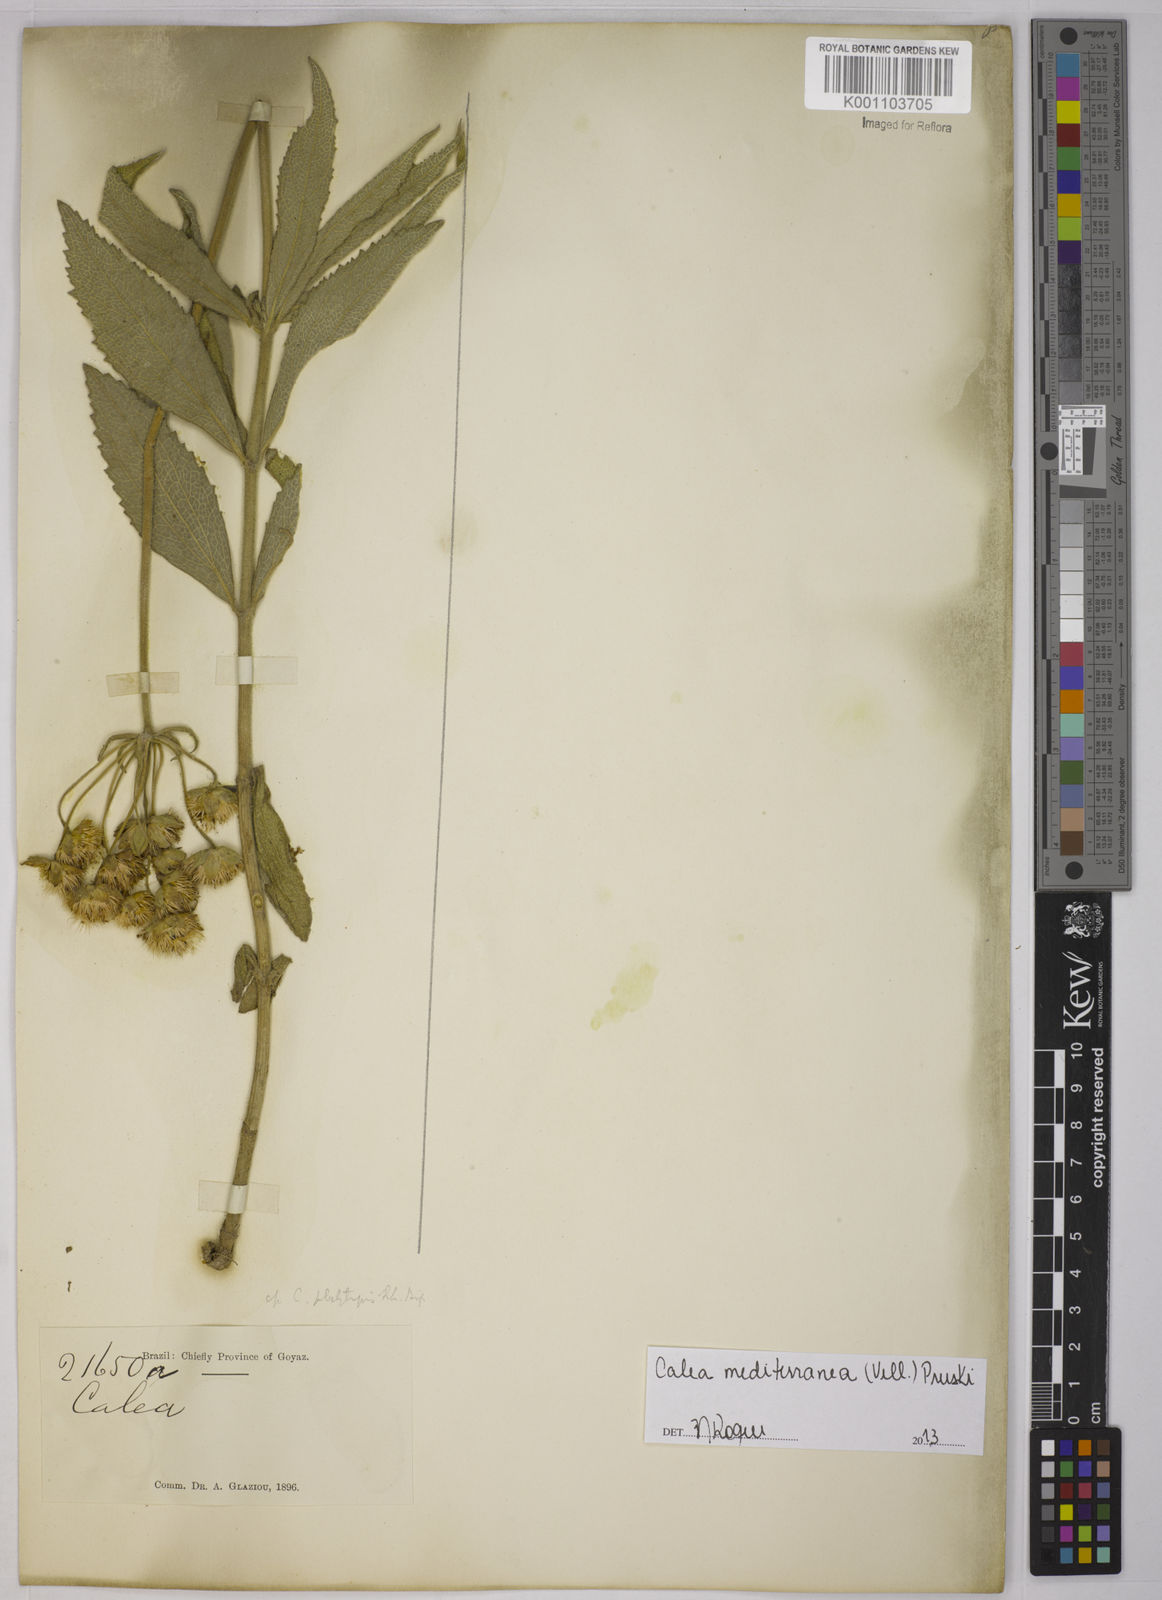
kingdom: Plantae
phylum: Tracheophyta
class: Magnoliopsida
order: Asterales
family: Asteraceae
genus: Calea
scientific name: Calea mediterranea
